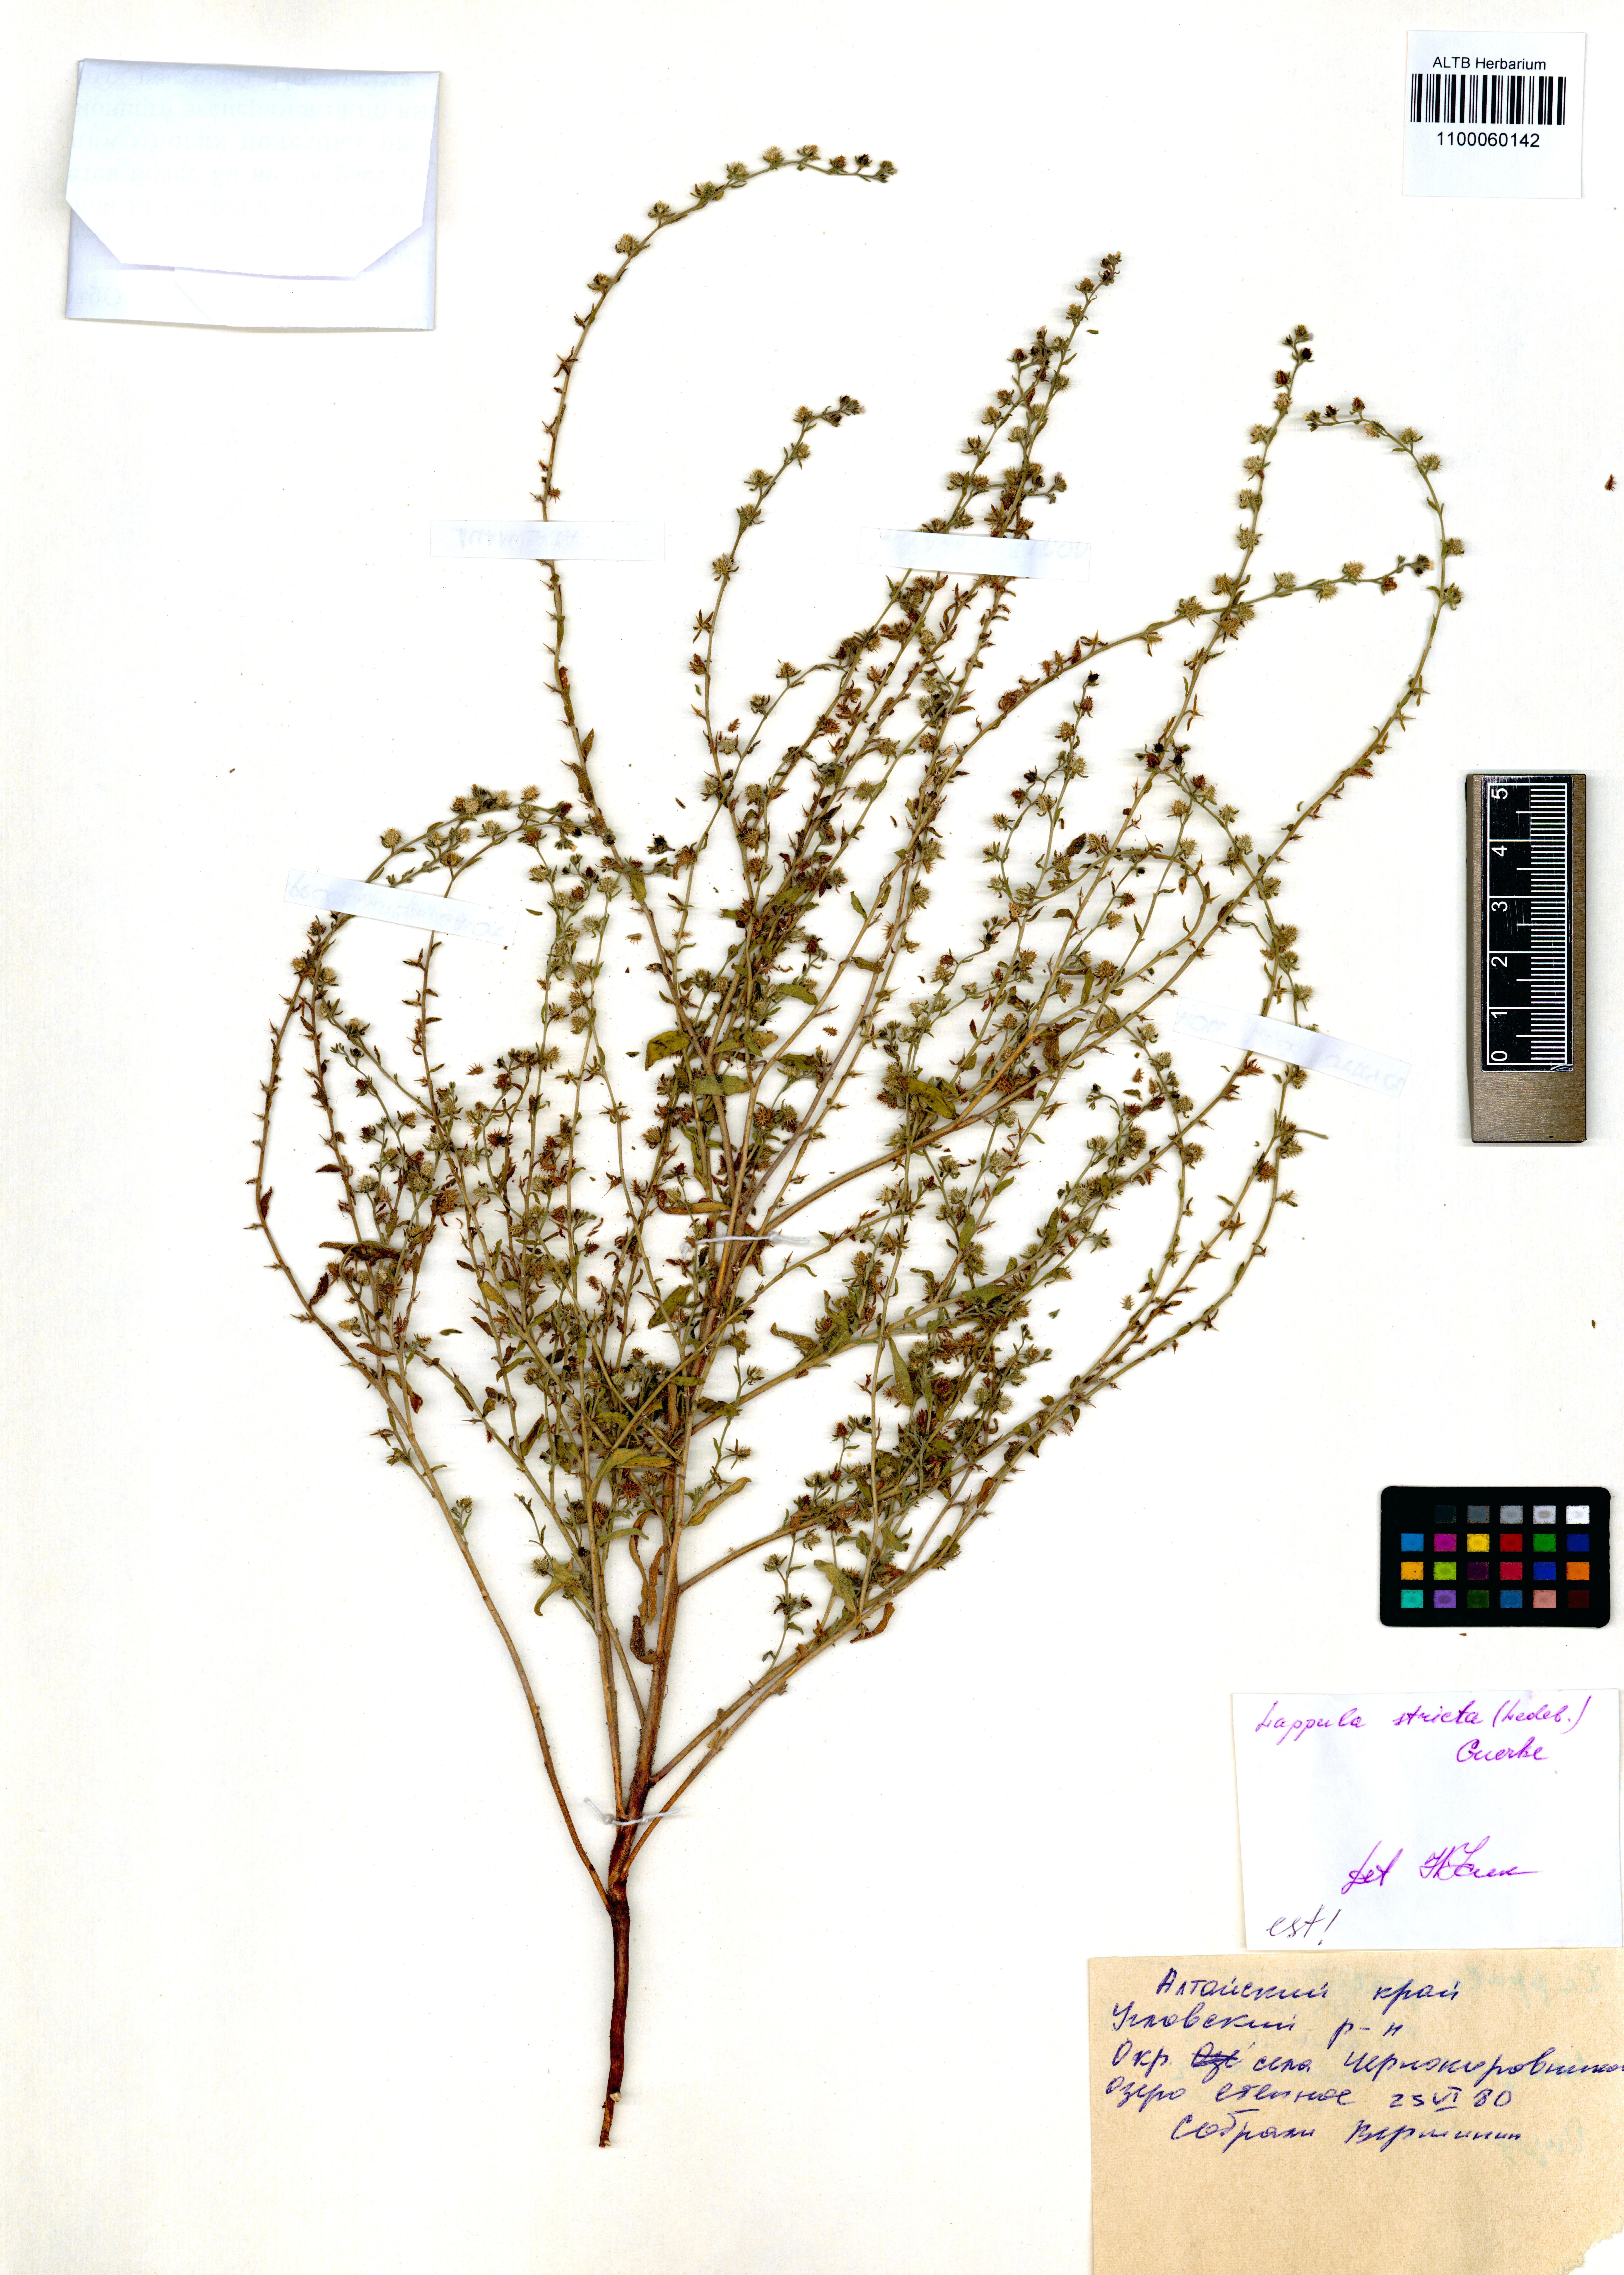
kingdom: Plantae
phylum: Tracheophyta
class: Magnoliopsida
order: Boraginales
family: Boraginaceae
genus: Lappula
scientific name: Lappula stricta
